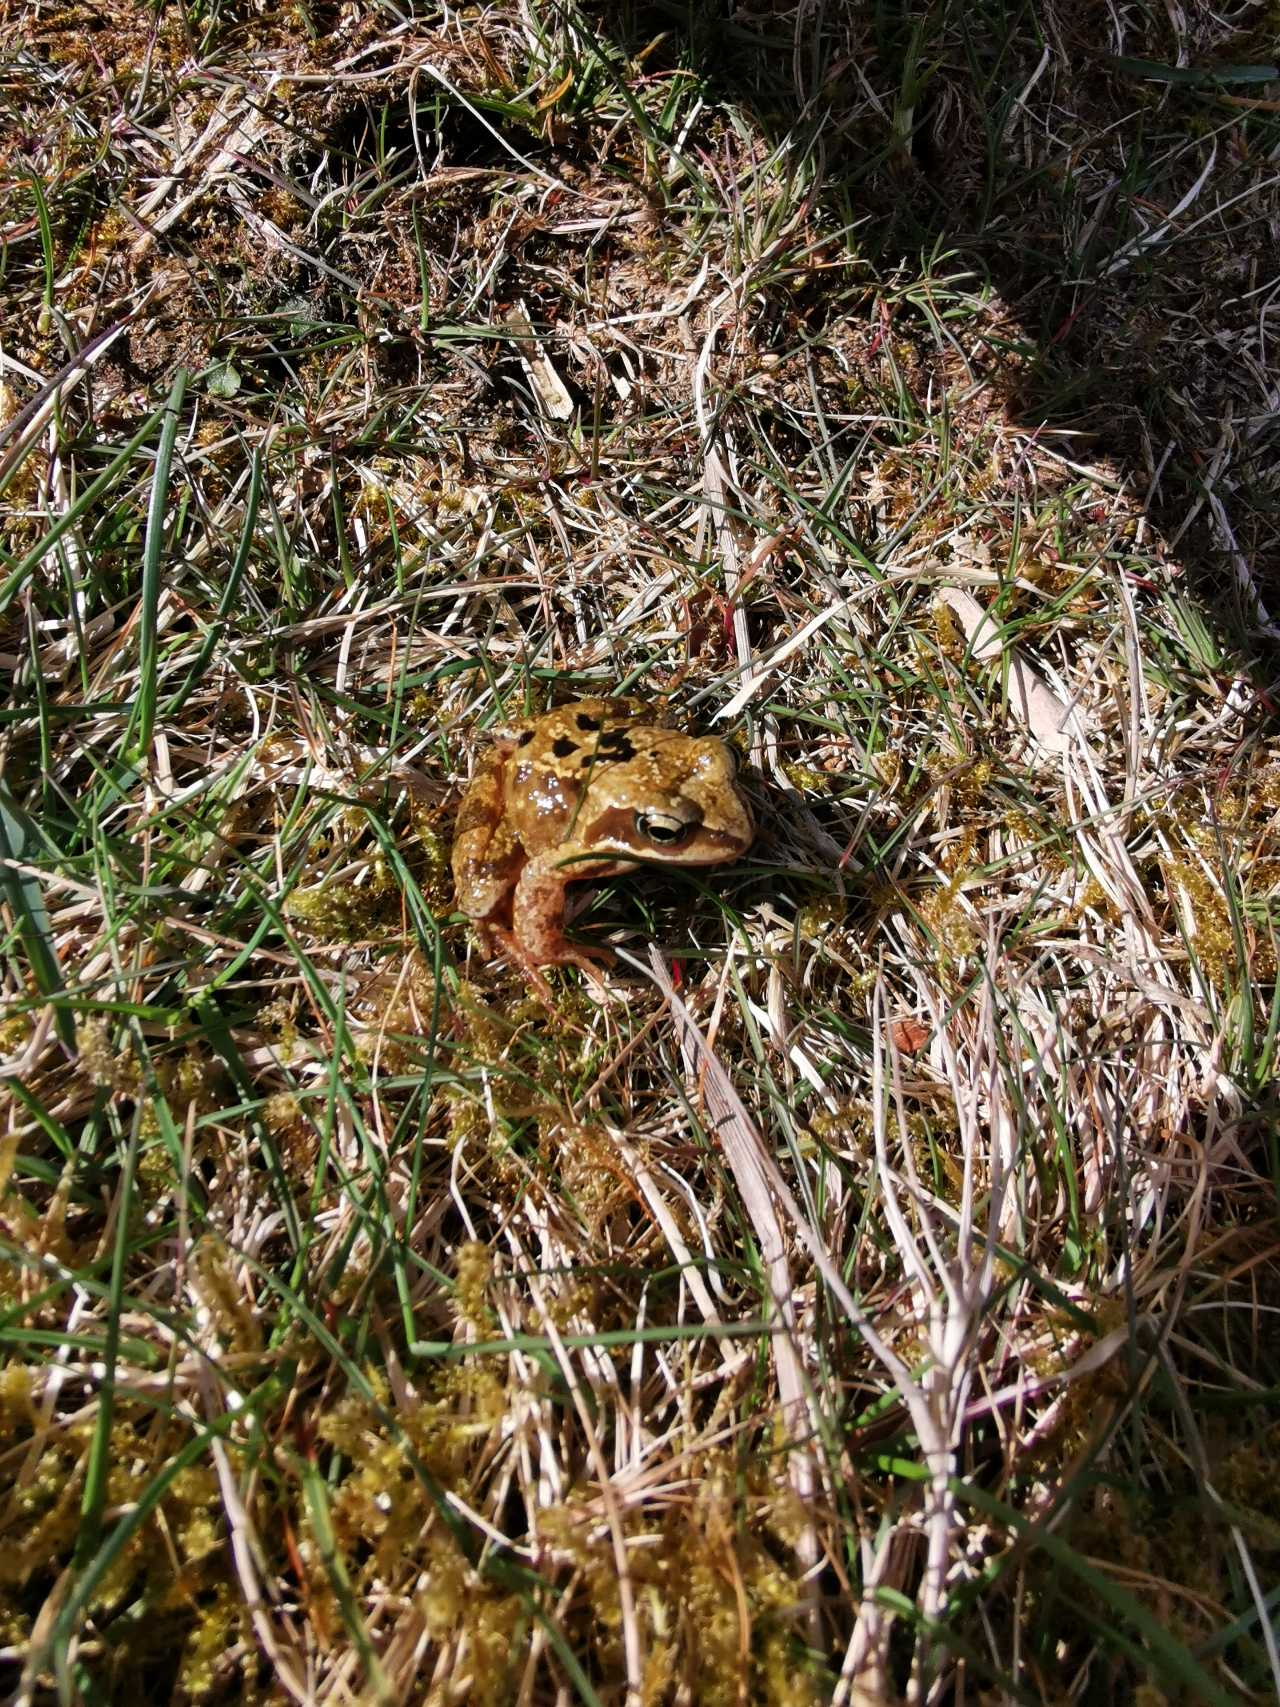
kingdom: Animalia
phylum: Chordata
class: Amphibia
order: Anura
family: Ranidae
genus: Rana
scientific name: Rana temporaria
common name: Butsnudet frø
